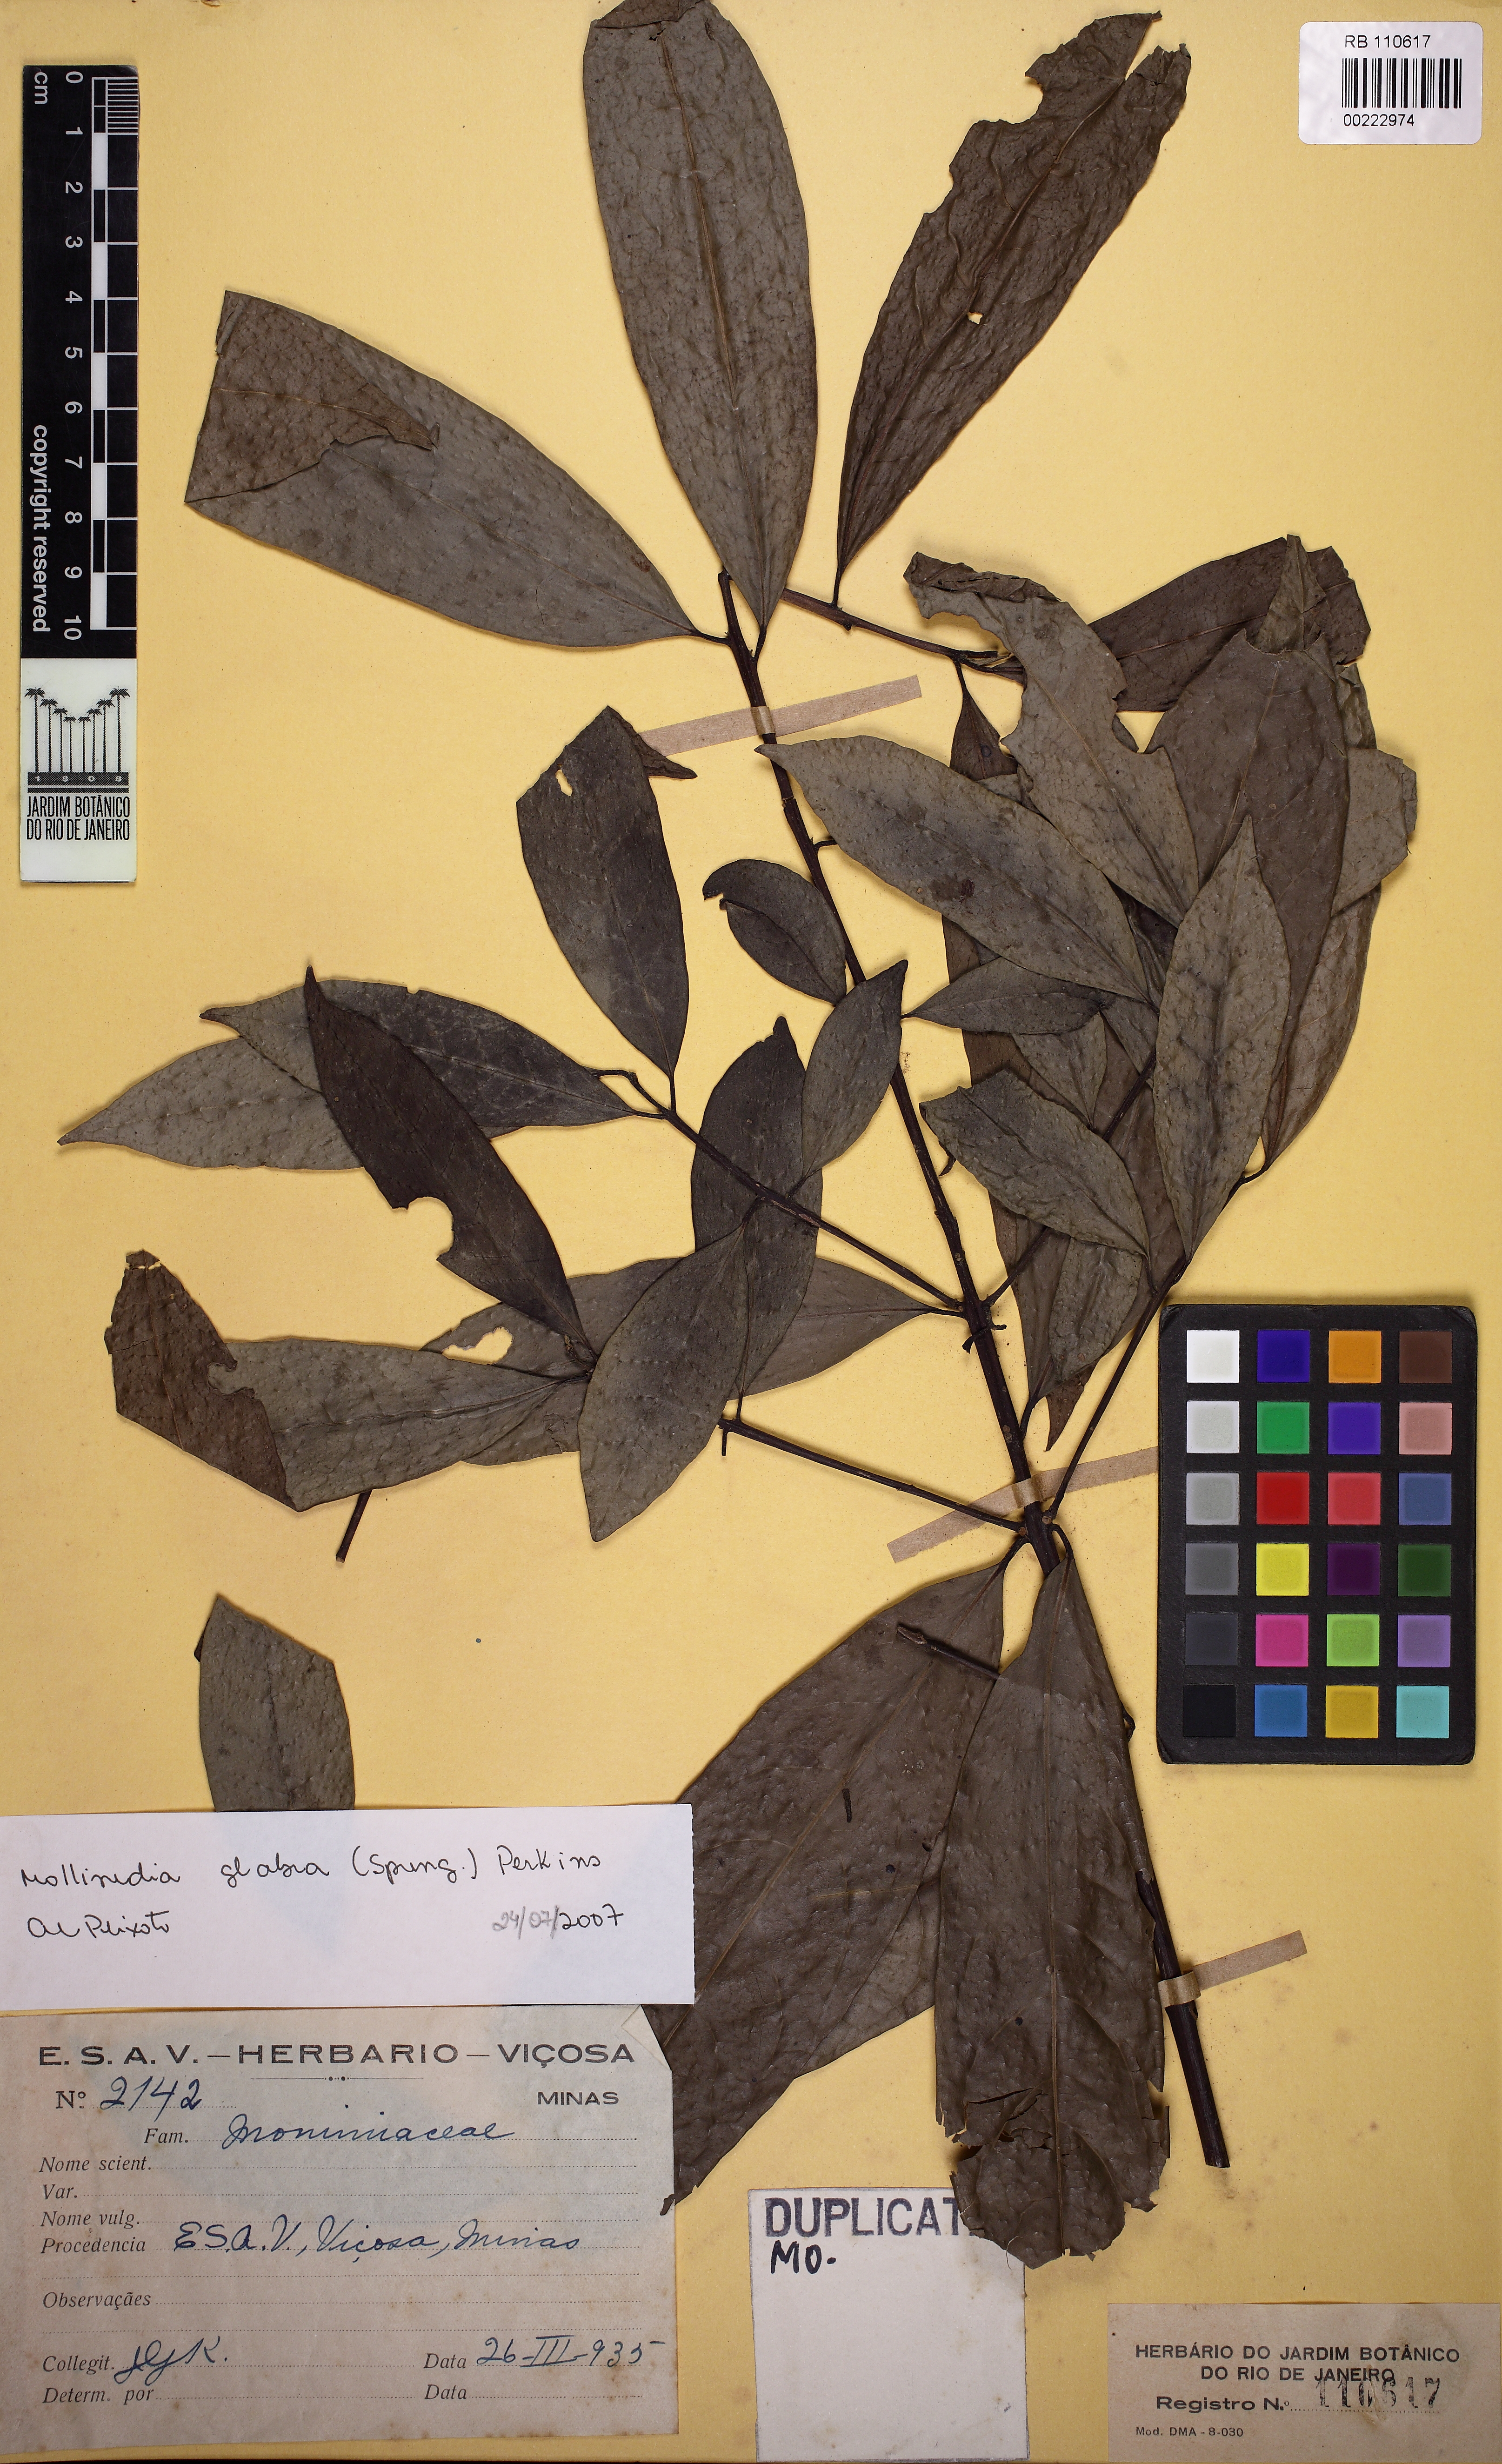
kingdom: Plantae
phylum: Tracheophyta
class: Magnoliopsida
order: Laurales
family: Siparunaceae
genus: Siparuna
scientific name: Siparuna guianensis
